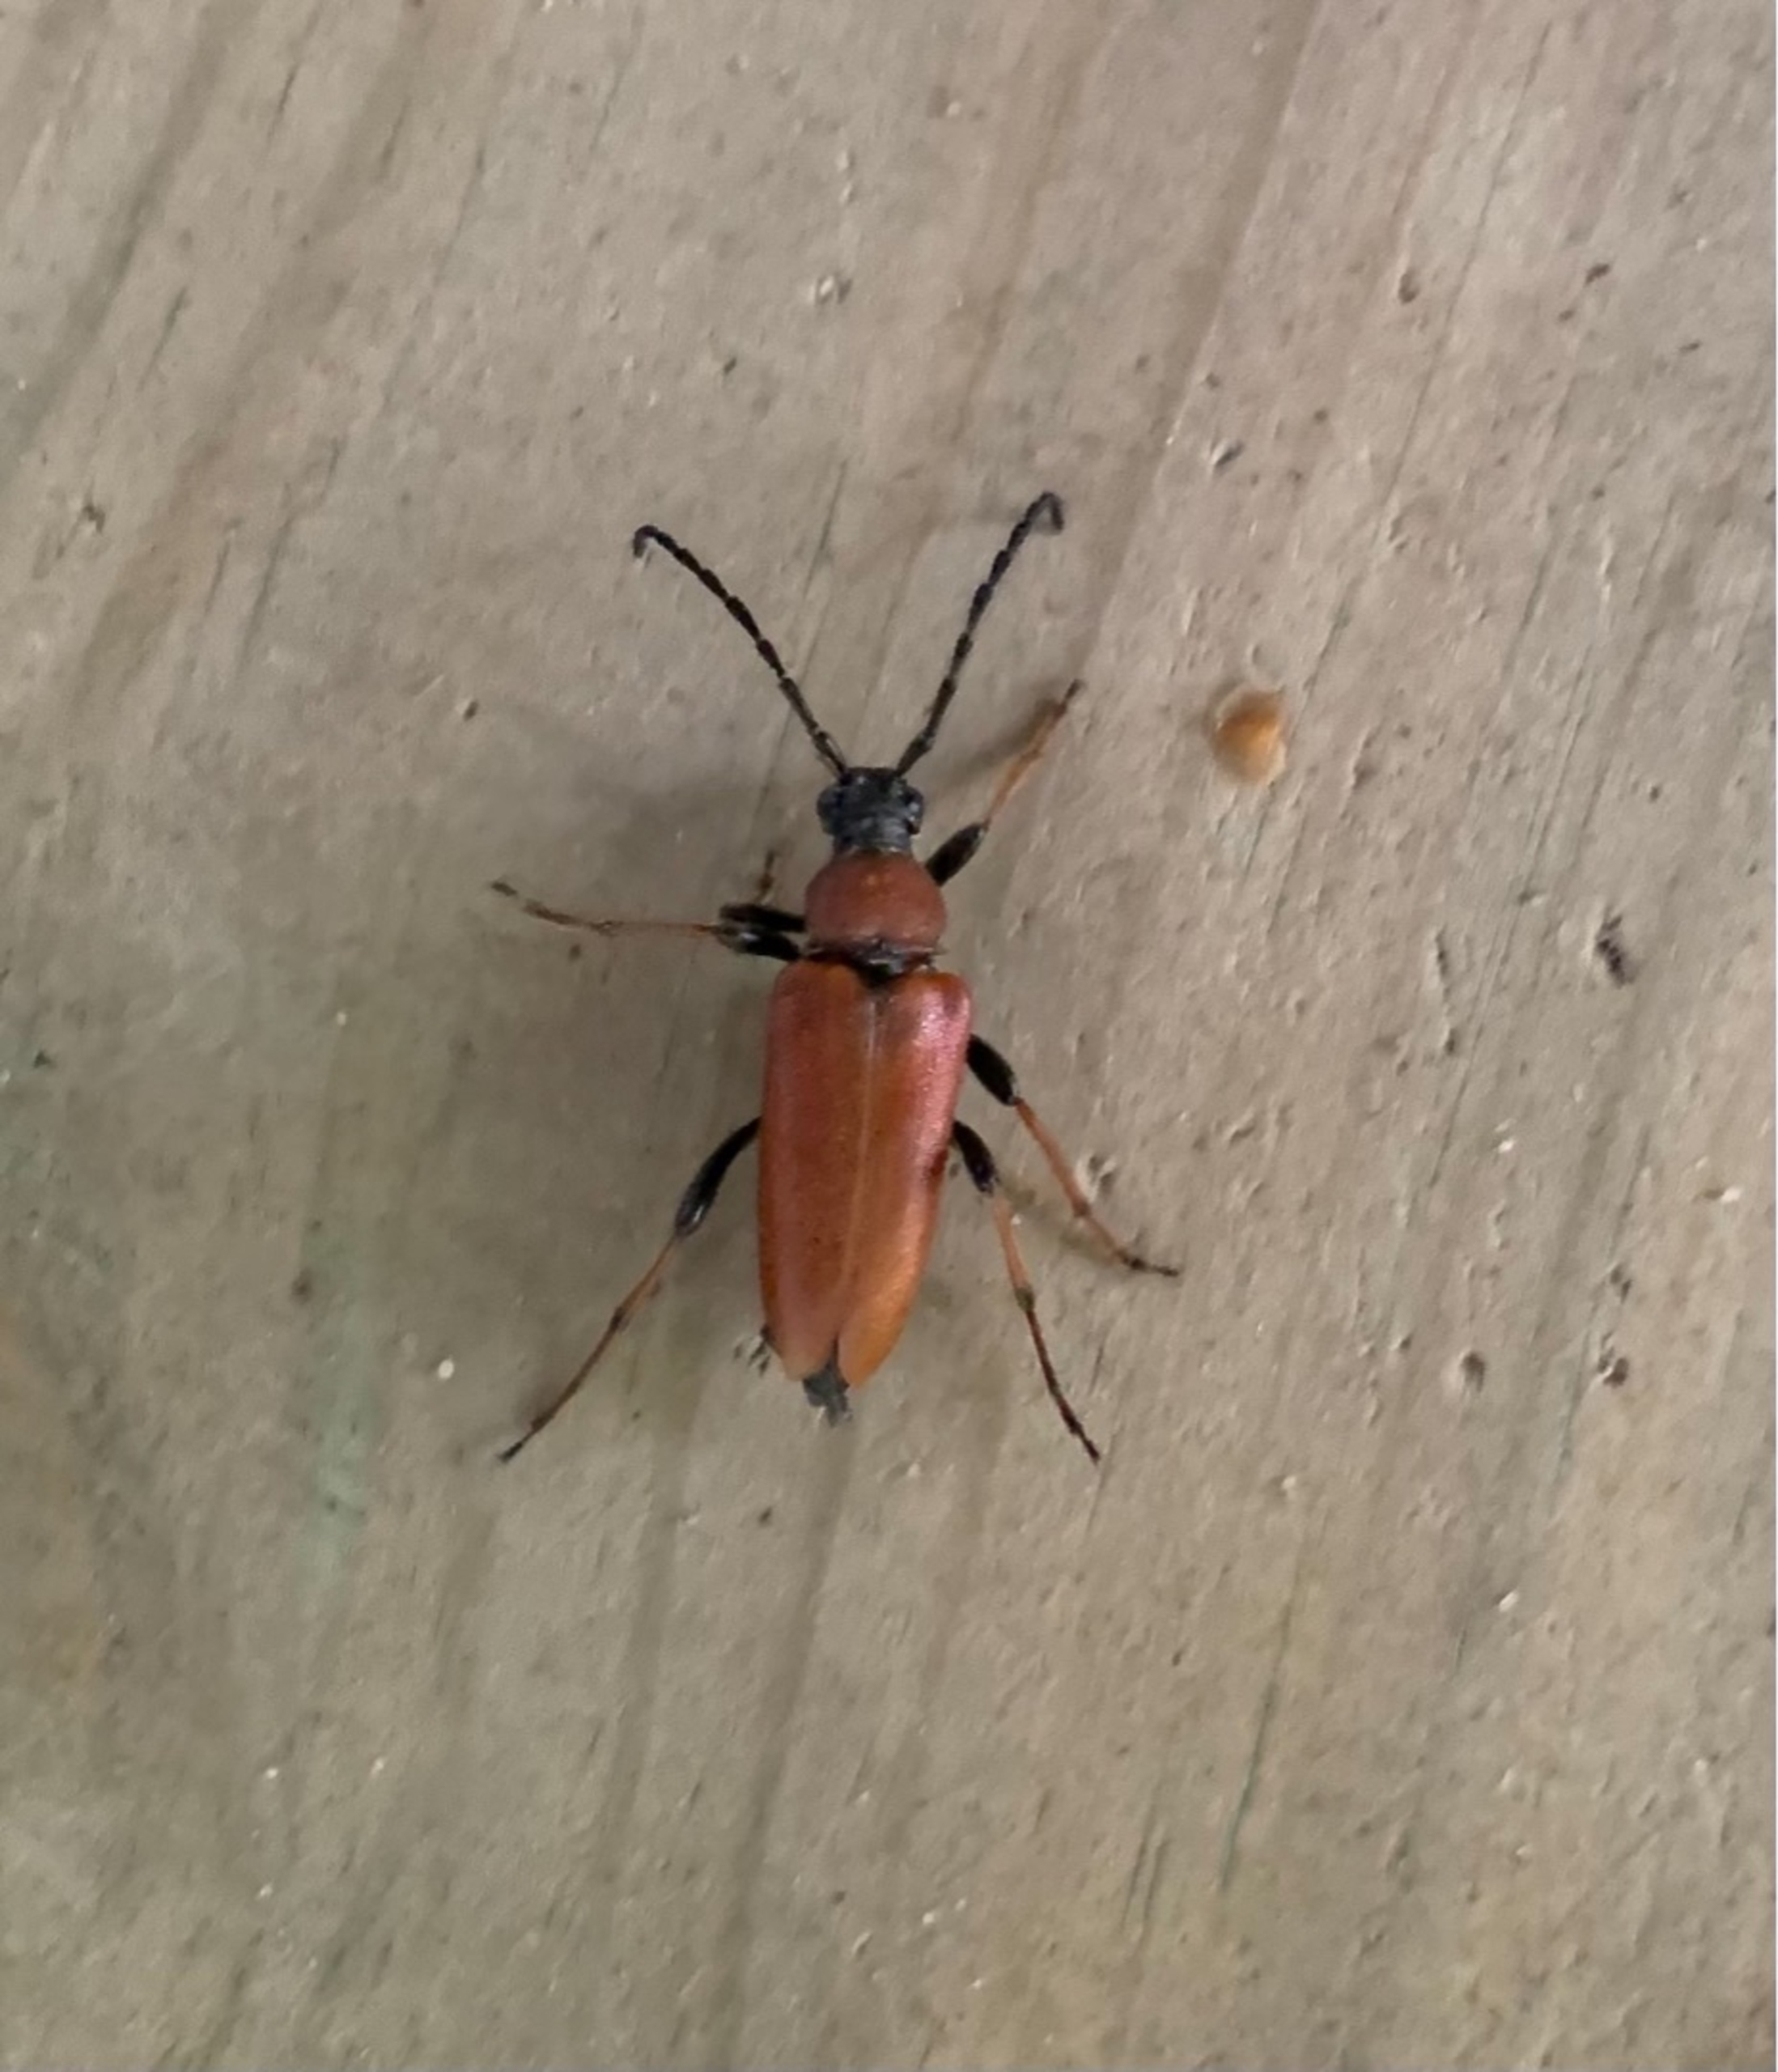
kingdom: Animalia
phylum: Arthropoda
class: Insecta
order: Coleoptera
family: Cerambycidae
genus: Stictoleptura
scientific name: Stictoleptura rubra
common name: Rød blomsterbuk
